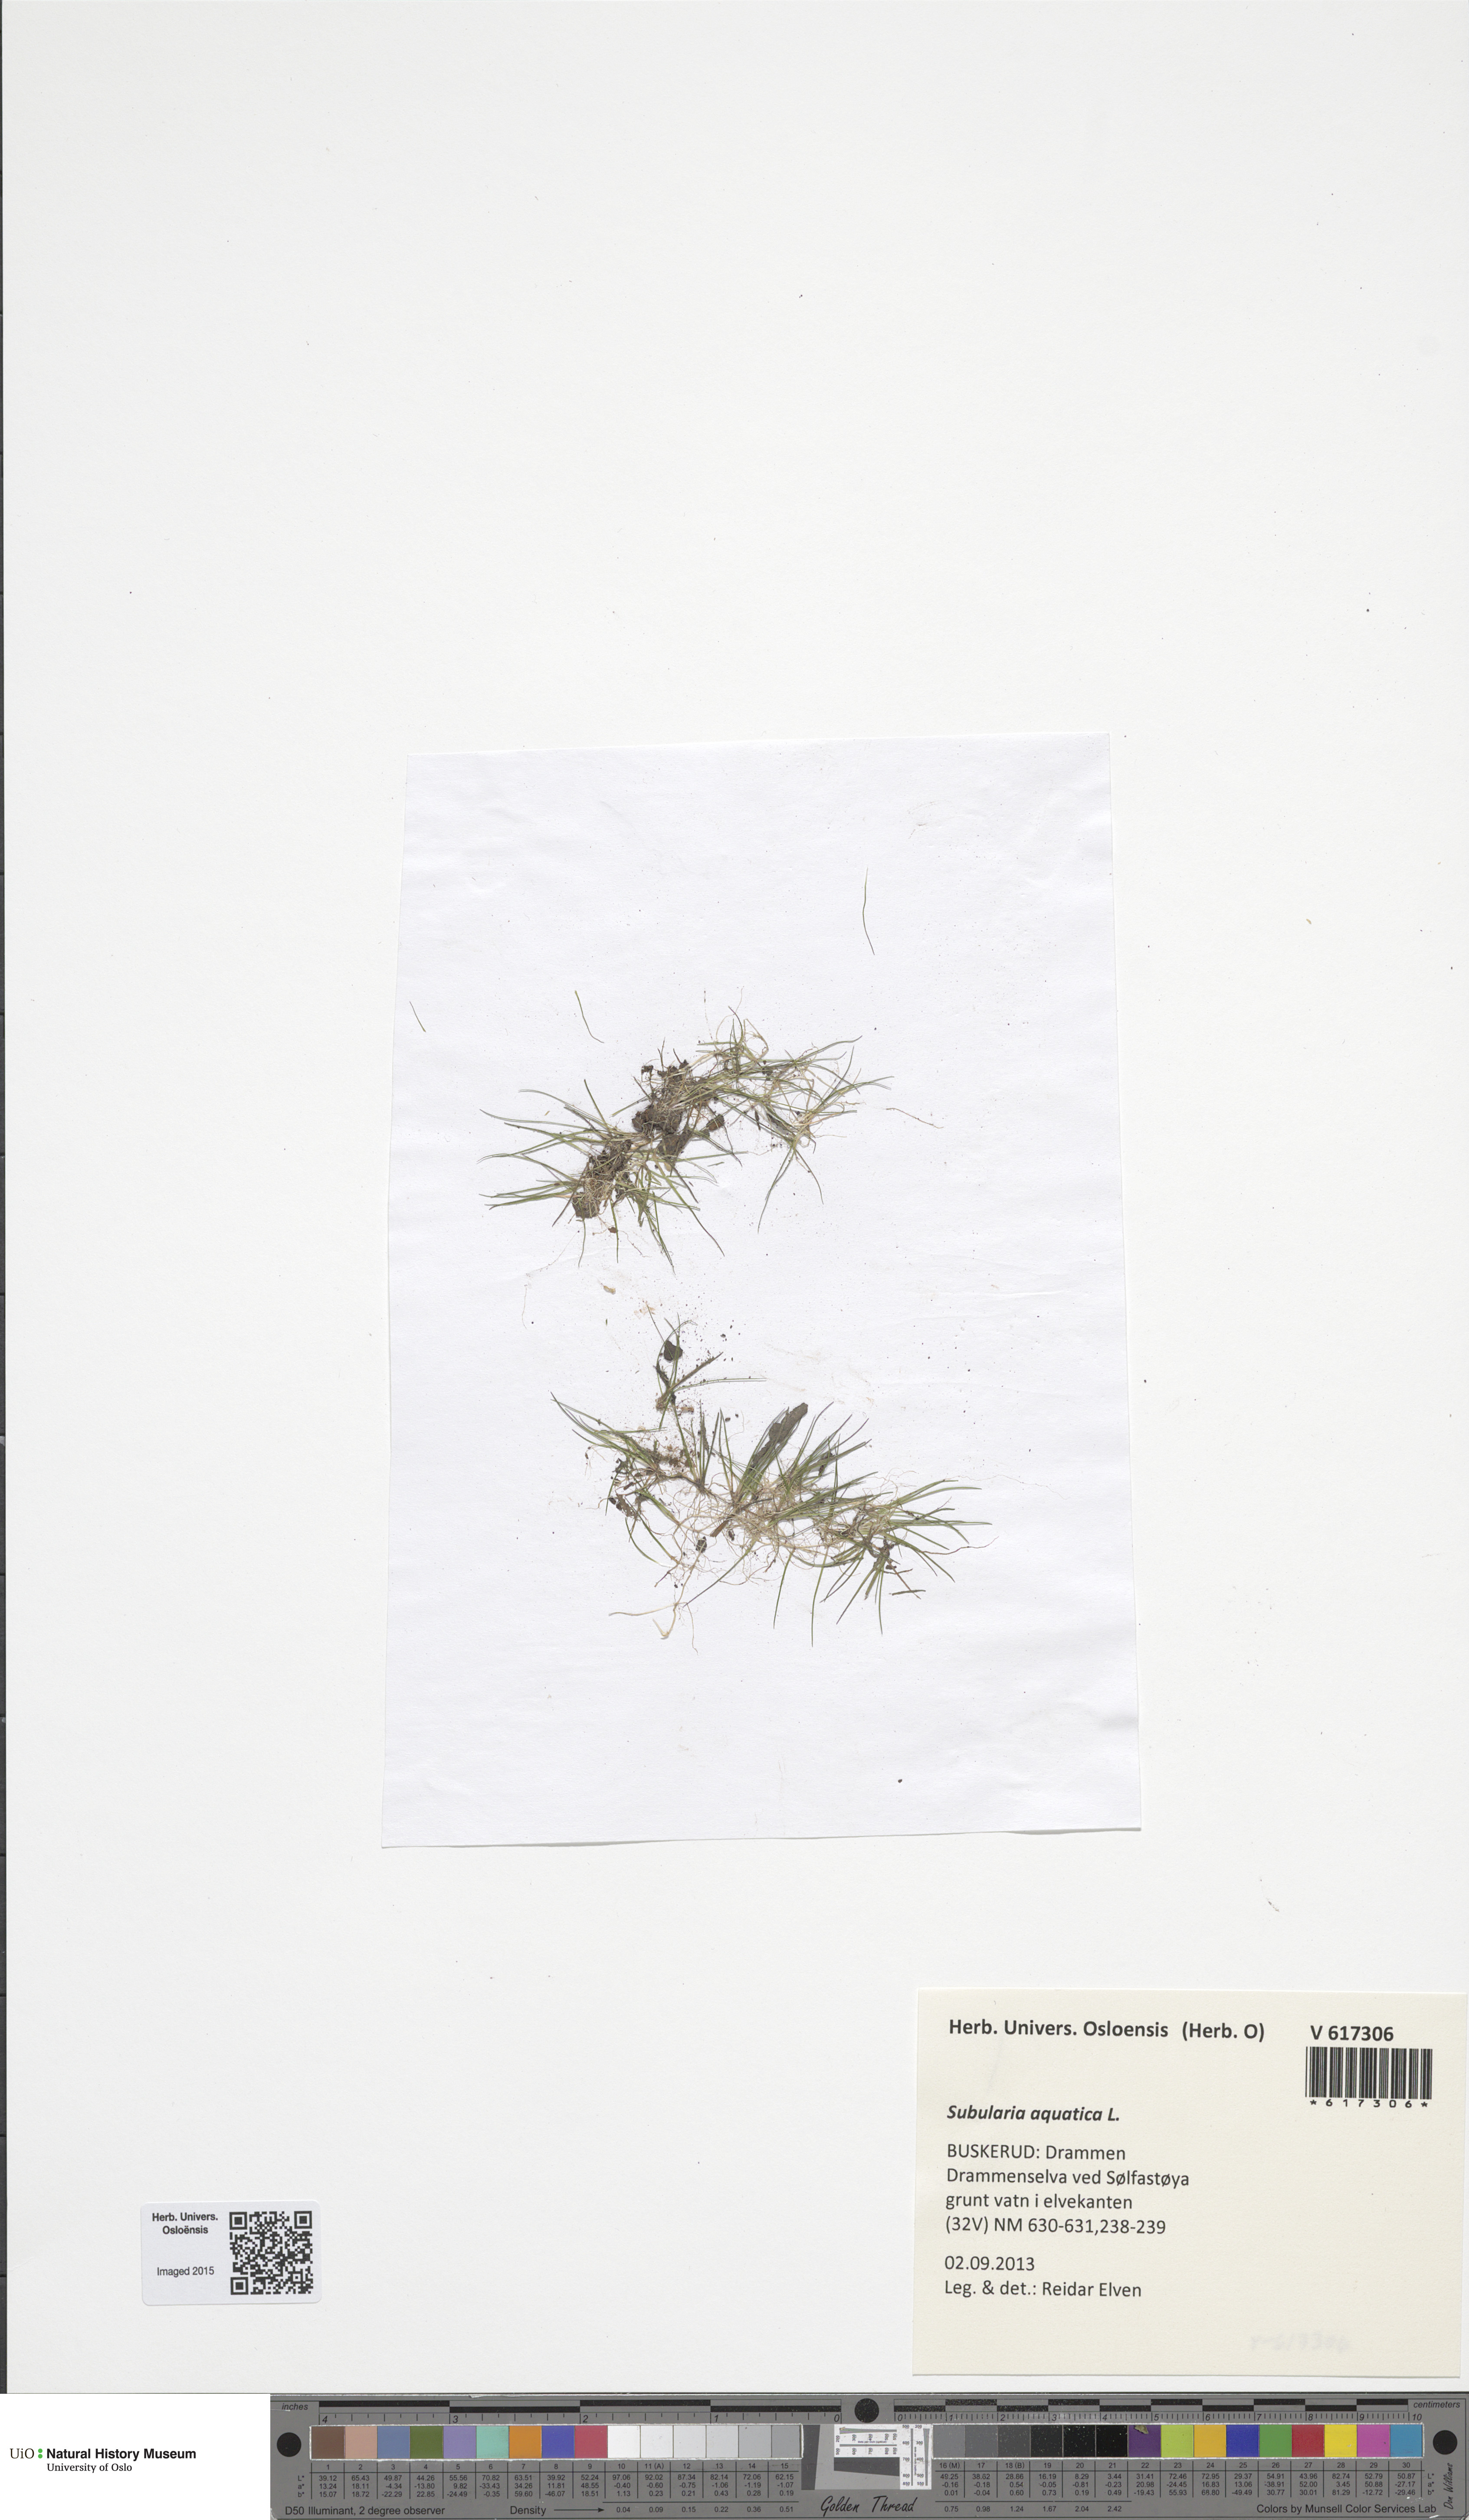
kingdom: Plantae
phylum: Tracheophyta
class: Magnoliopsida
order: Brassicales
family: Brassicaceae
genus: Subularia
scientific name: Subularia aquatica
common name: Awlwort
